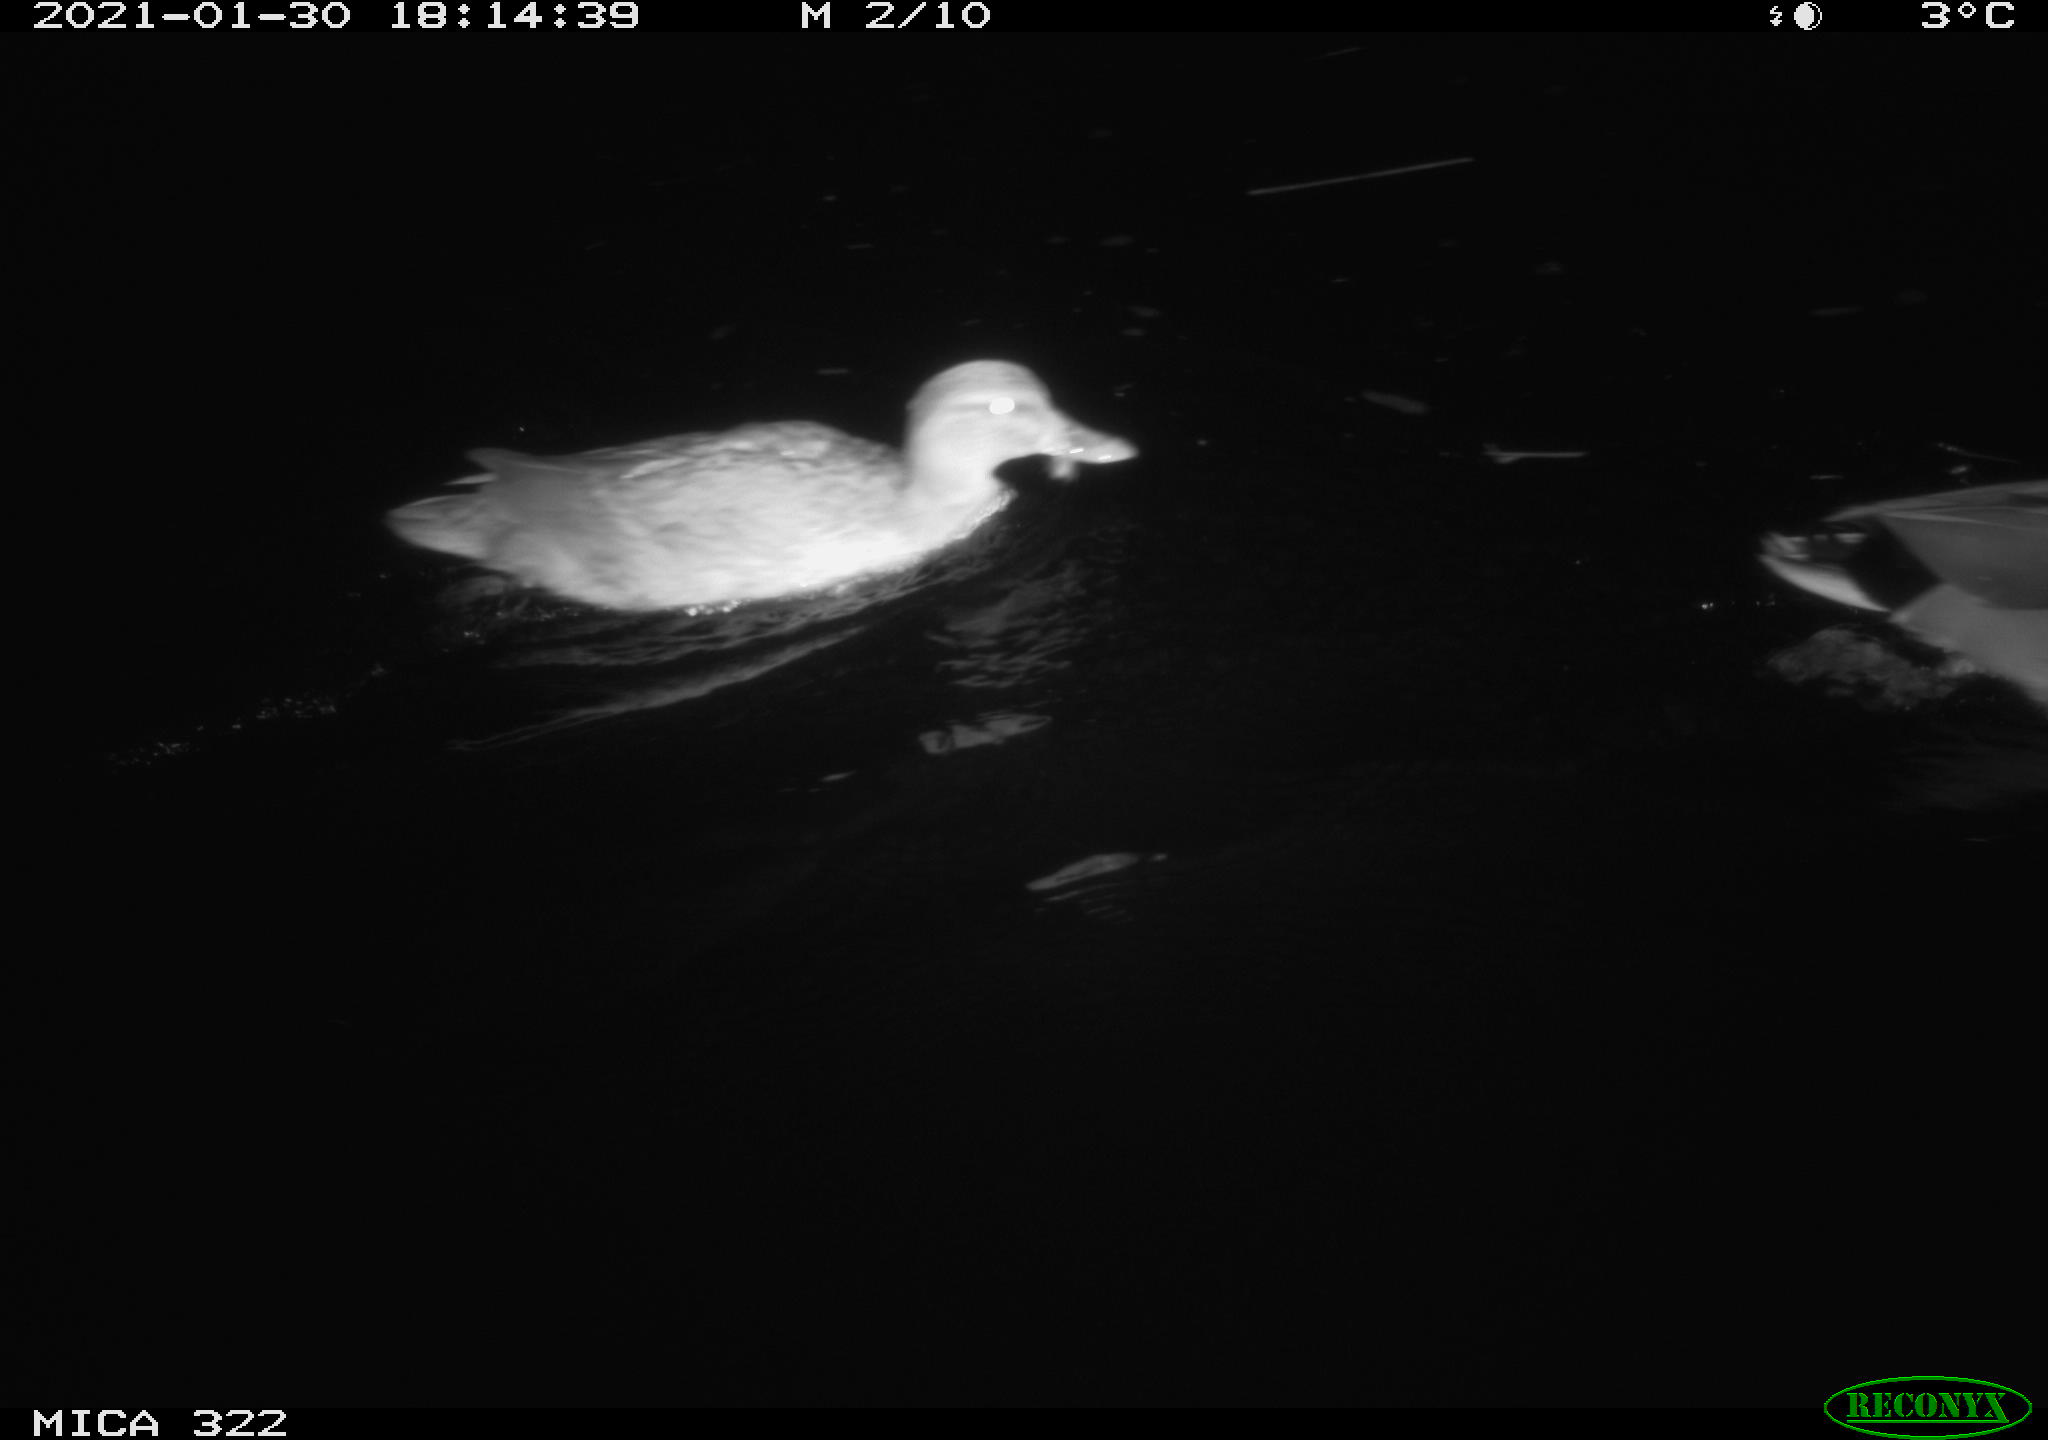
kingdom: Animalia
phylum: Chordata
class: Aves
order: Anseriformes
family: Anatidae
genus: Anas
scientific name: Anas platyrhynchos
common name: Mallard
